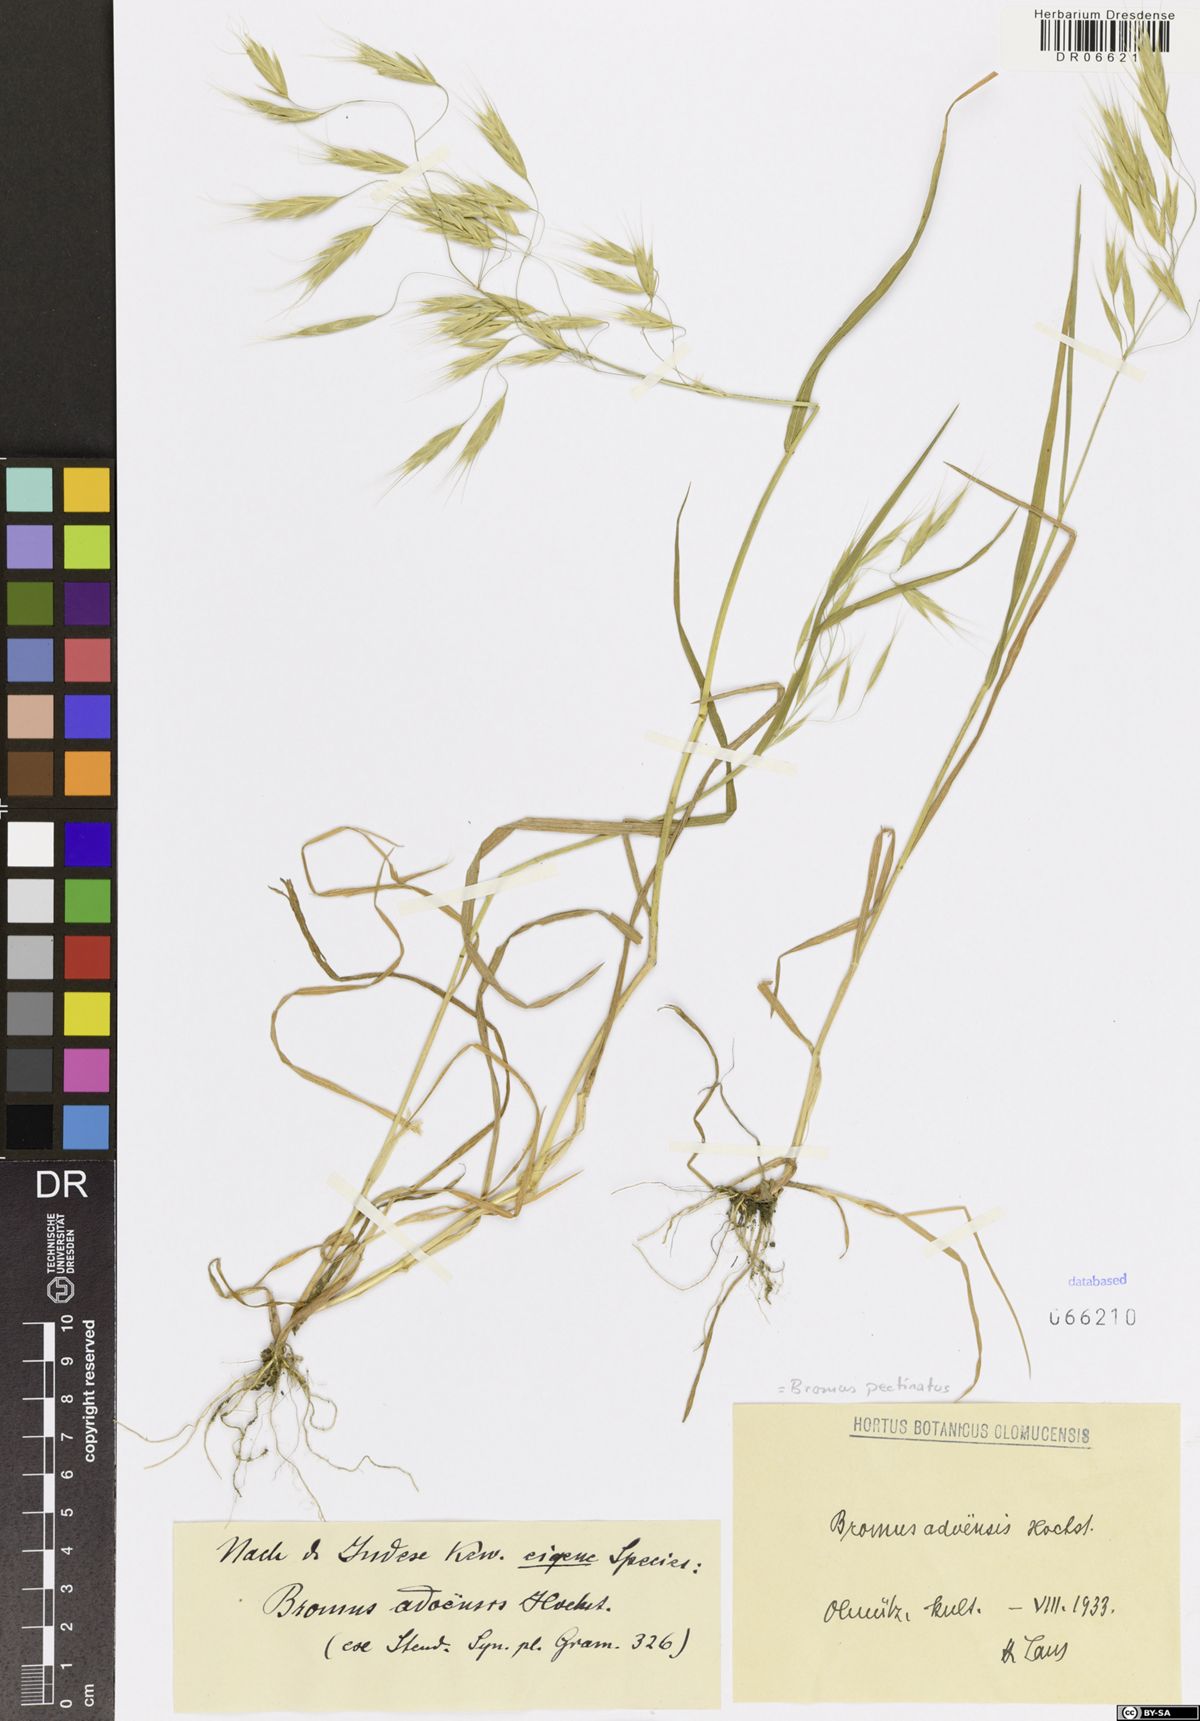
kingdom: Plantae
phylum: Tracheophyta
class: Liliopsida
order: Poales
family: Poaceae
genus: Bromus
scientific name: Bromus pectinatus
